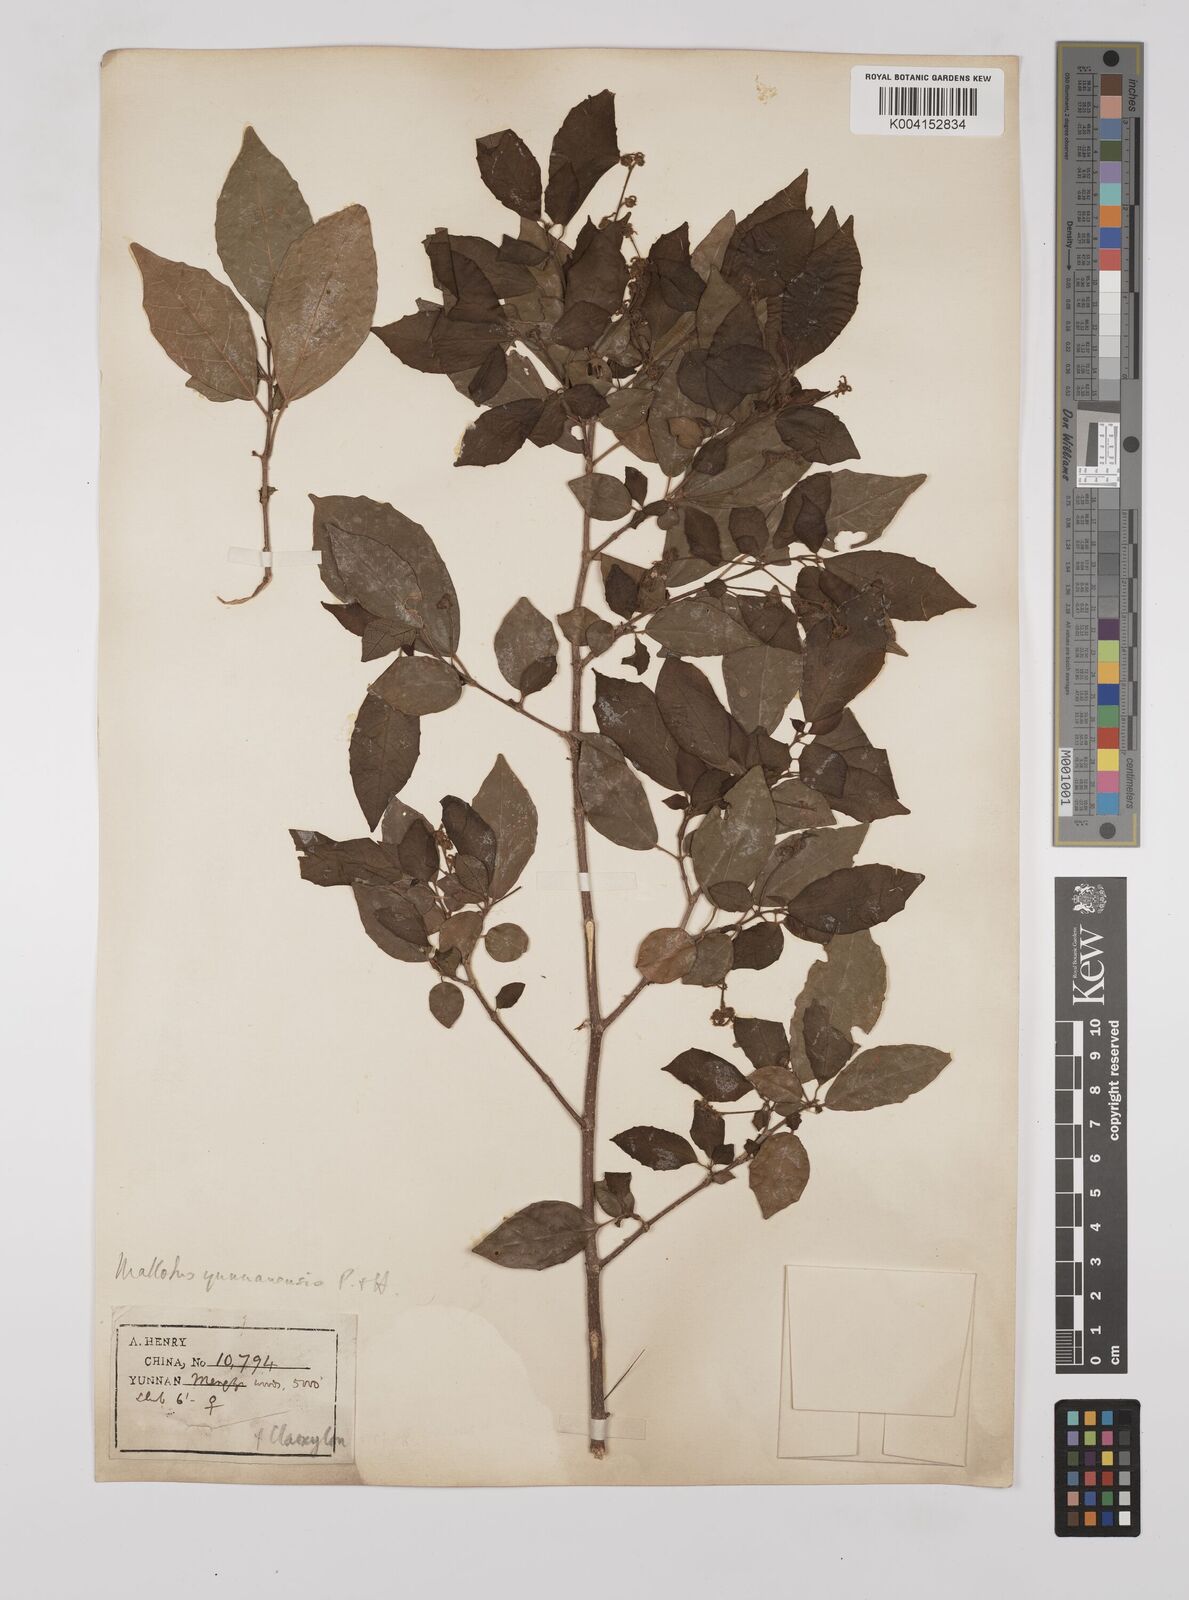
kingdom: Plantae
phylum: Tracheophyta
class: Magnoliopsida
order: Malpighiales
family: Euphorbiaceae
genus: Mallotus
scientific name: Mallotus yunnanensis
